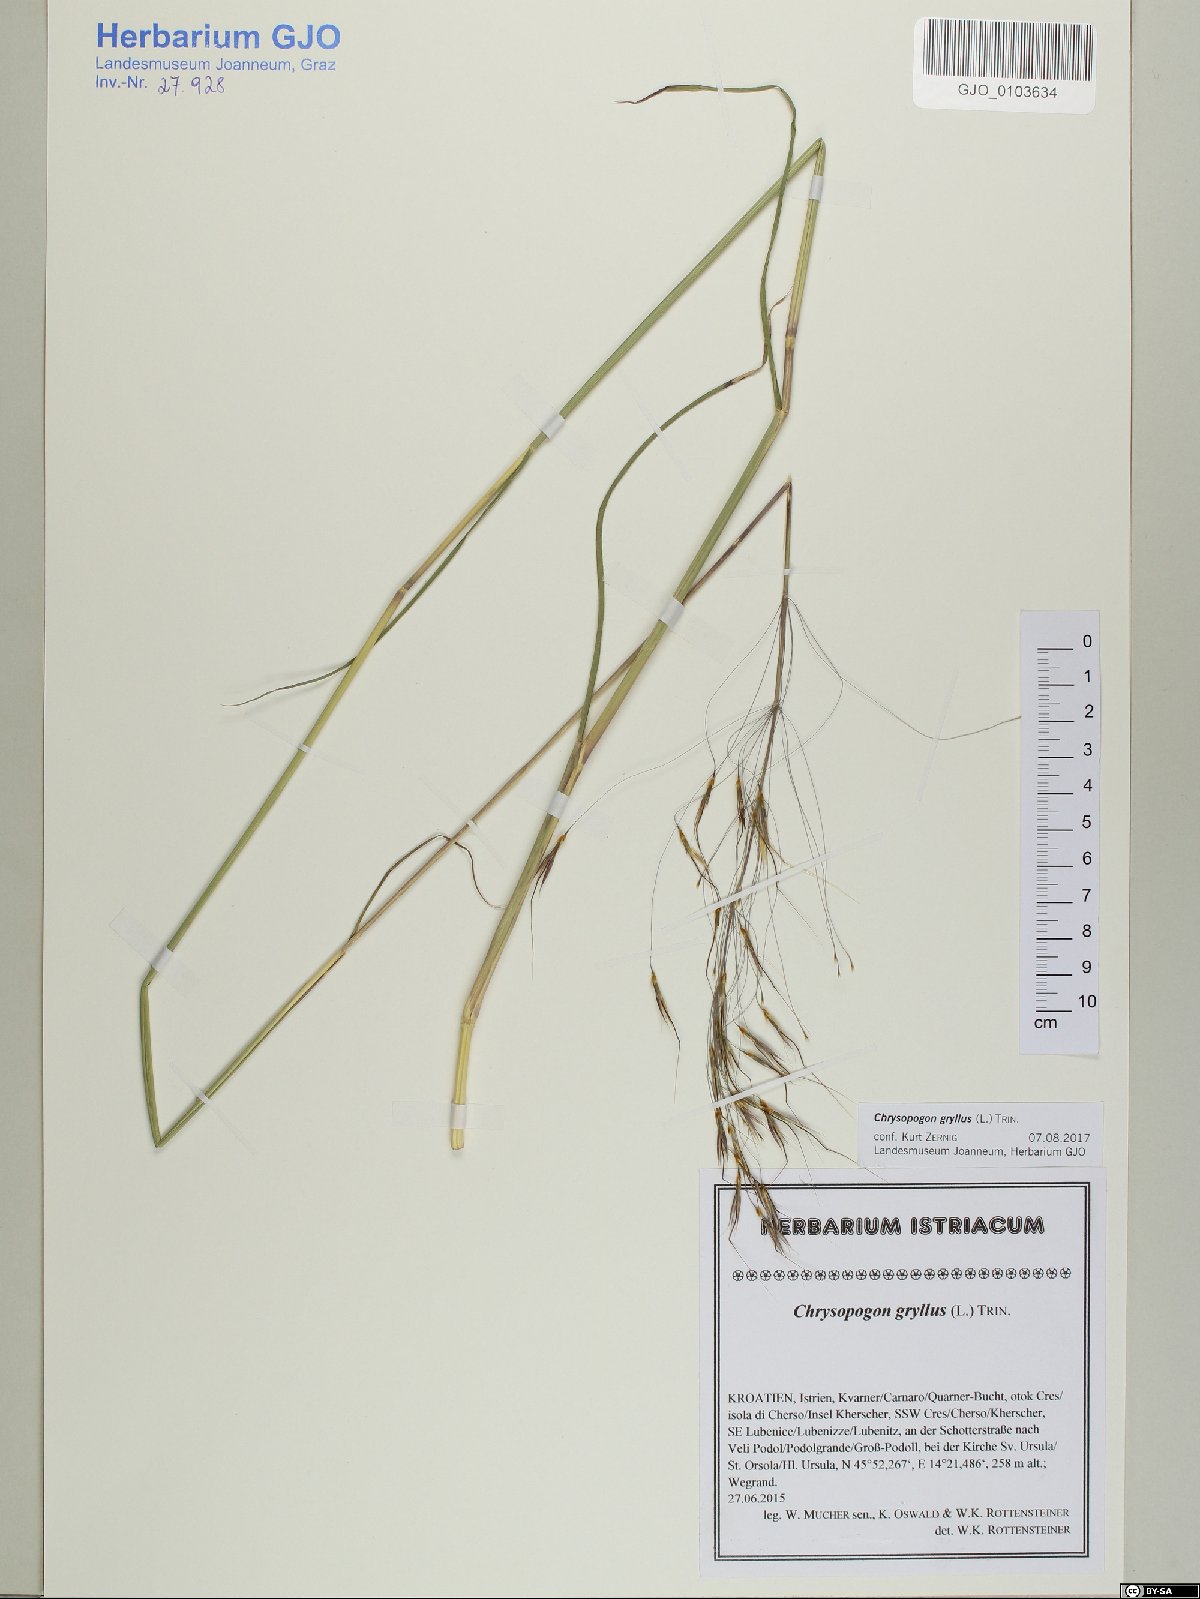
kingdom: Plantae
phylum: Tracheophyta
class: Liliopsida
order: Poales
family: Poaceae
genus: Chrysopogon
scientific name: Chrysopogon gryllus
